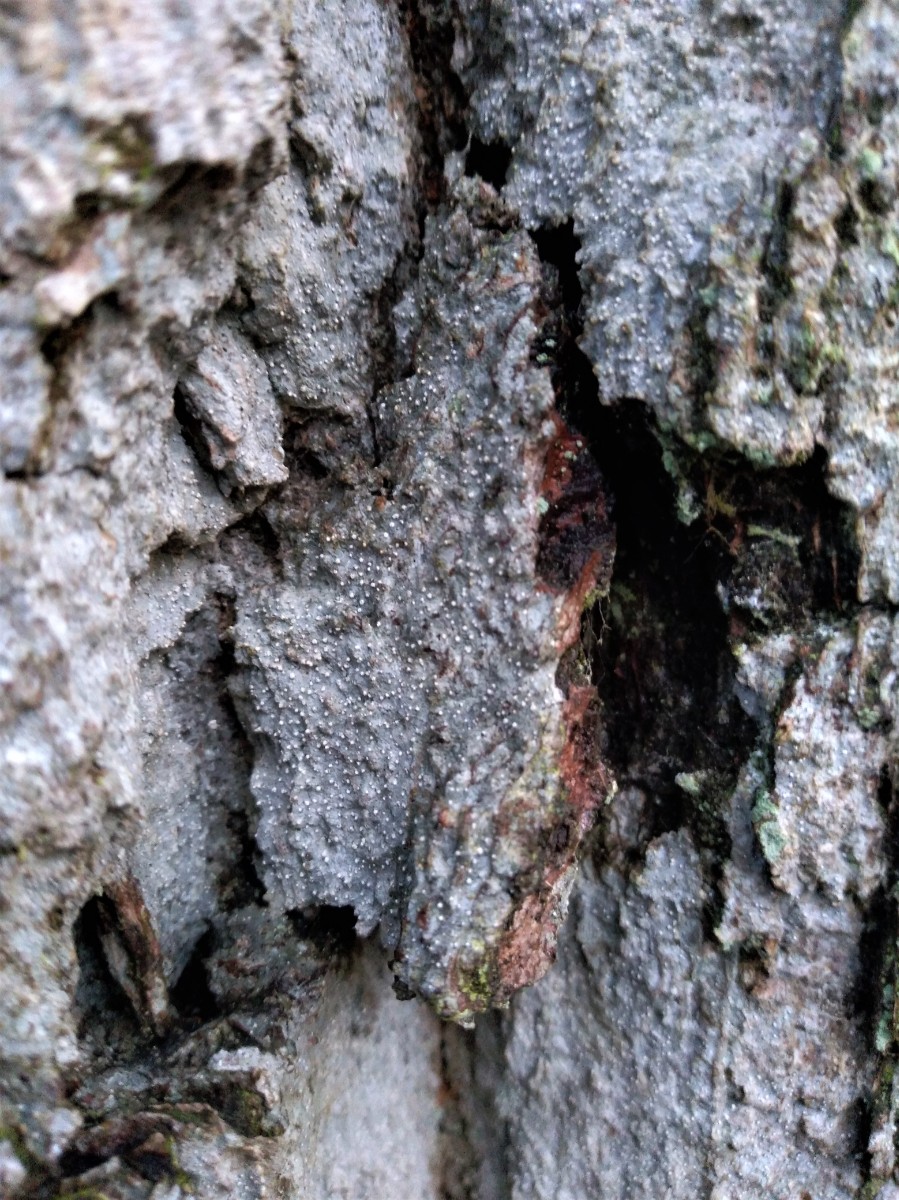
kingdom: Fungi
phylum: Ascomycota
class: Arthoniomycetes
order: Arthoniales
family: Roccellaceae
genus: Lecanactis
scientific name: Lecanactis abietina
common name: grå dugskivelav
